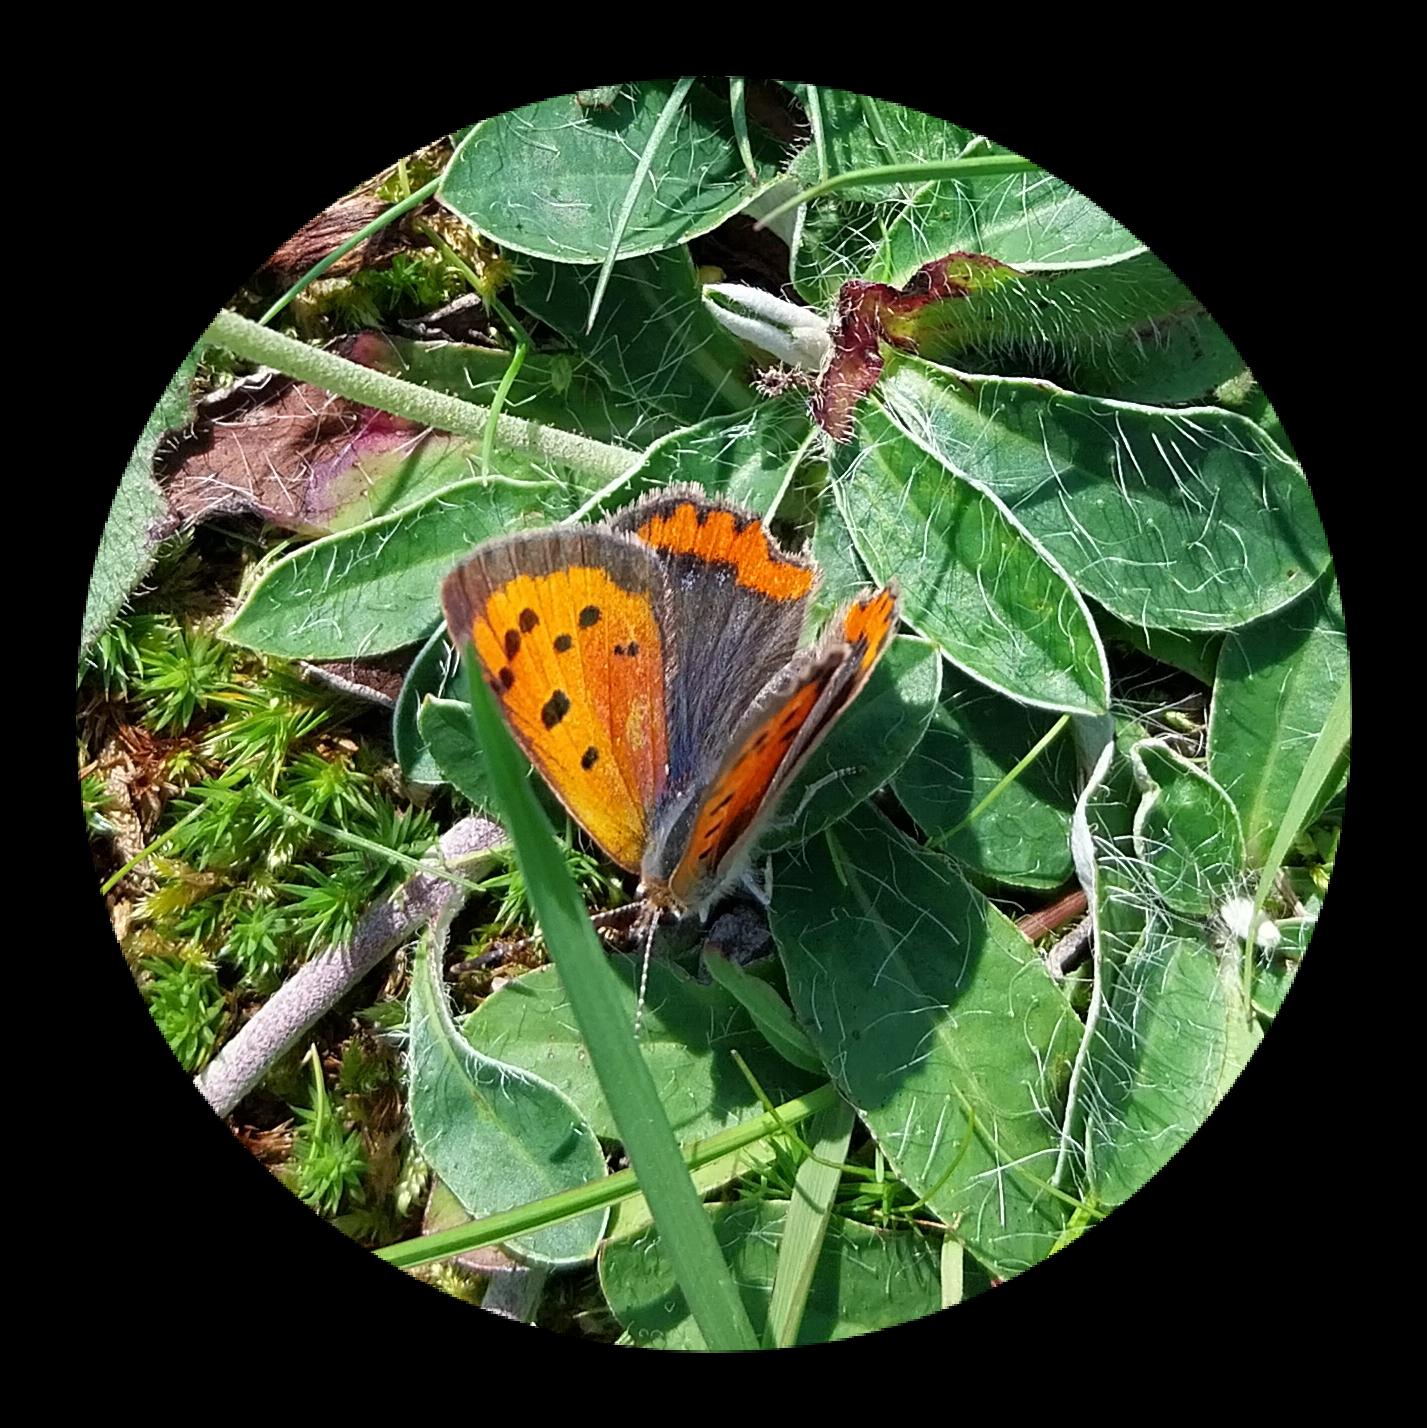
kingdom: Animalia
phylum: Arthropoda
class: Insecta
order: Lepidoptera
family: Lycaenidae
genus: Lycaena
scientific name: Lycaena phlaeas
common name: Lille ildfugl
